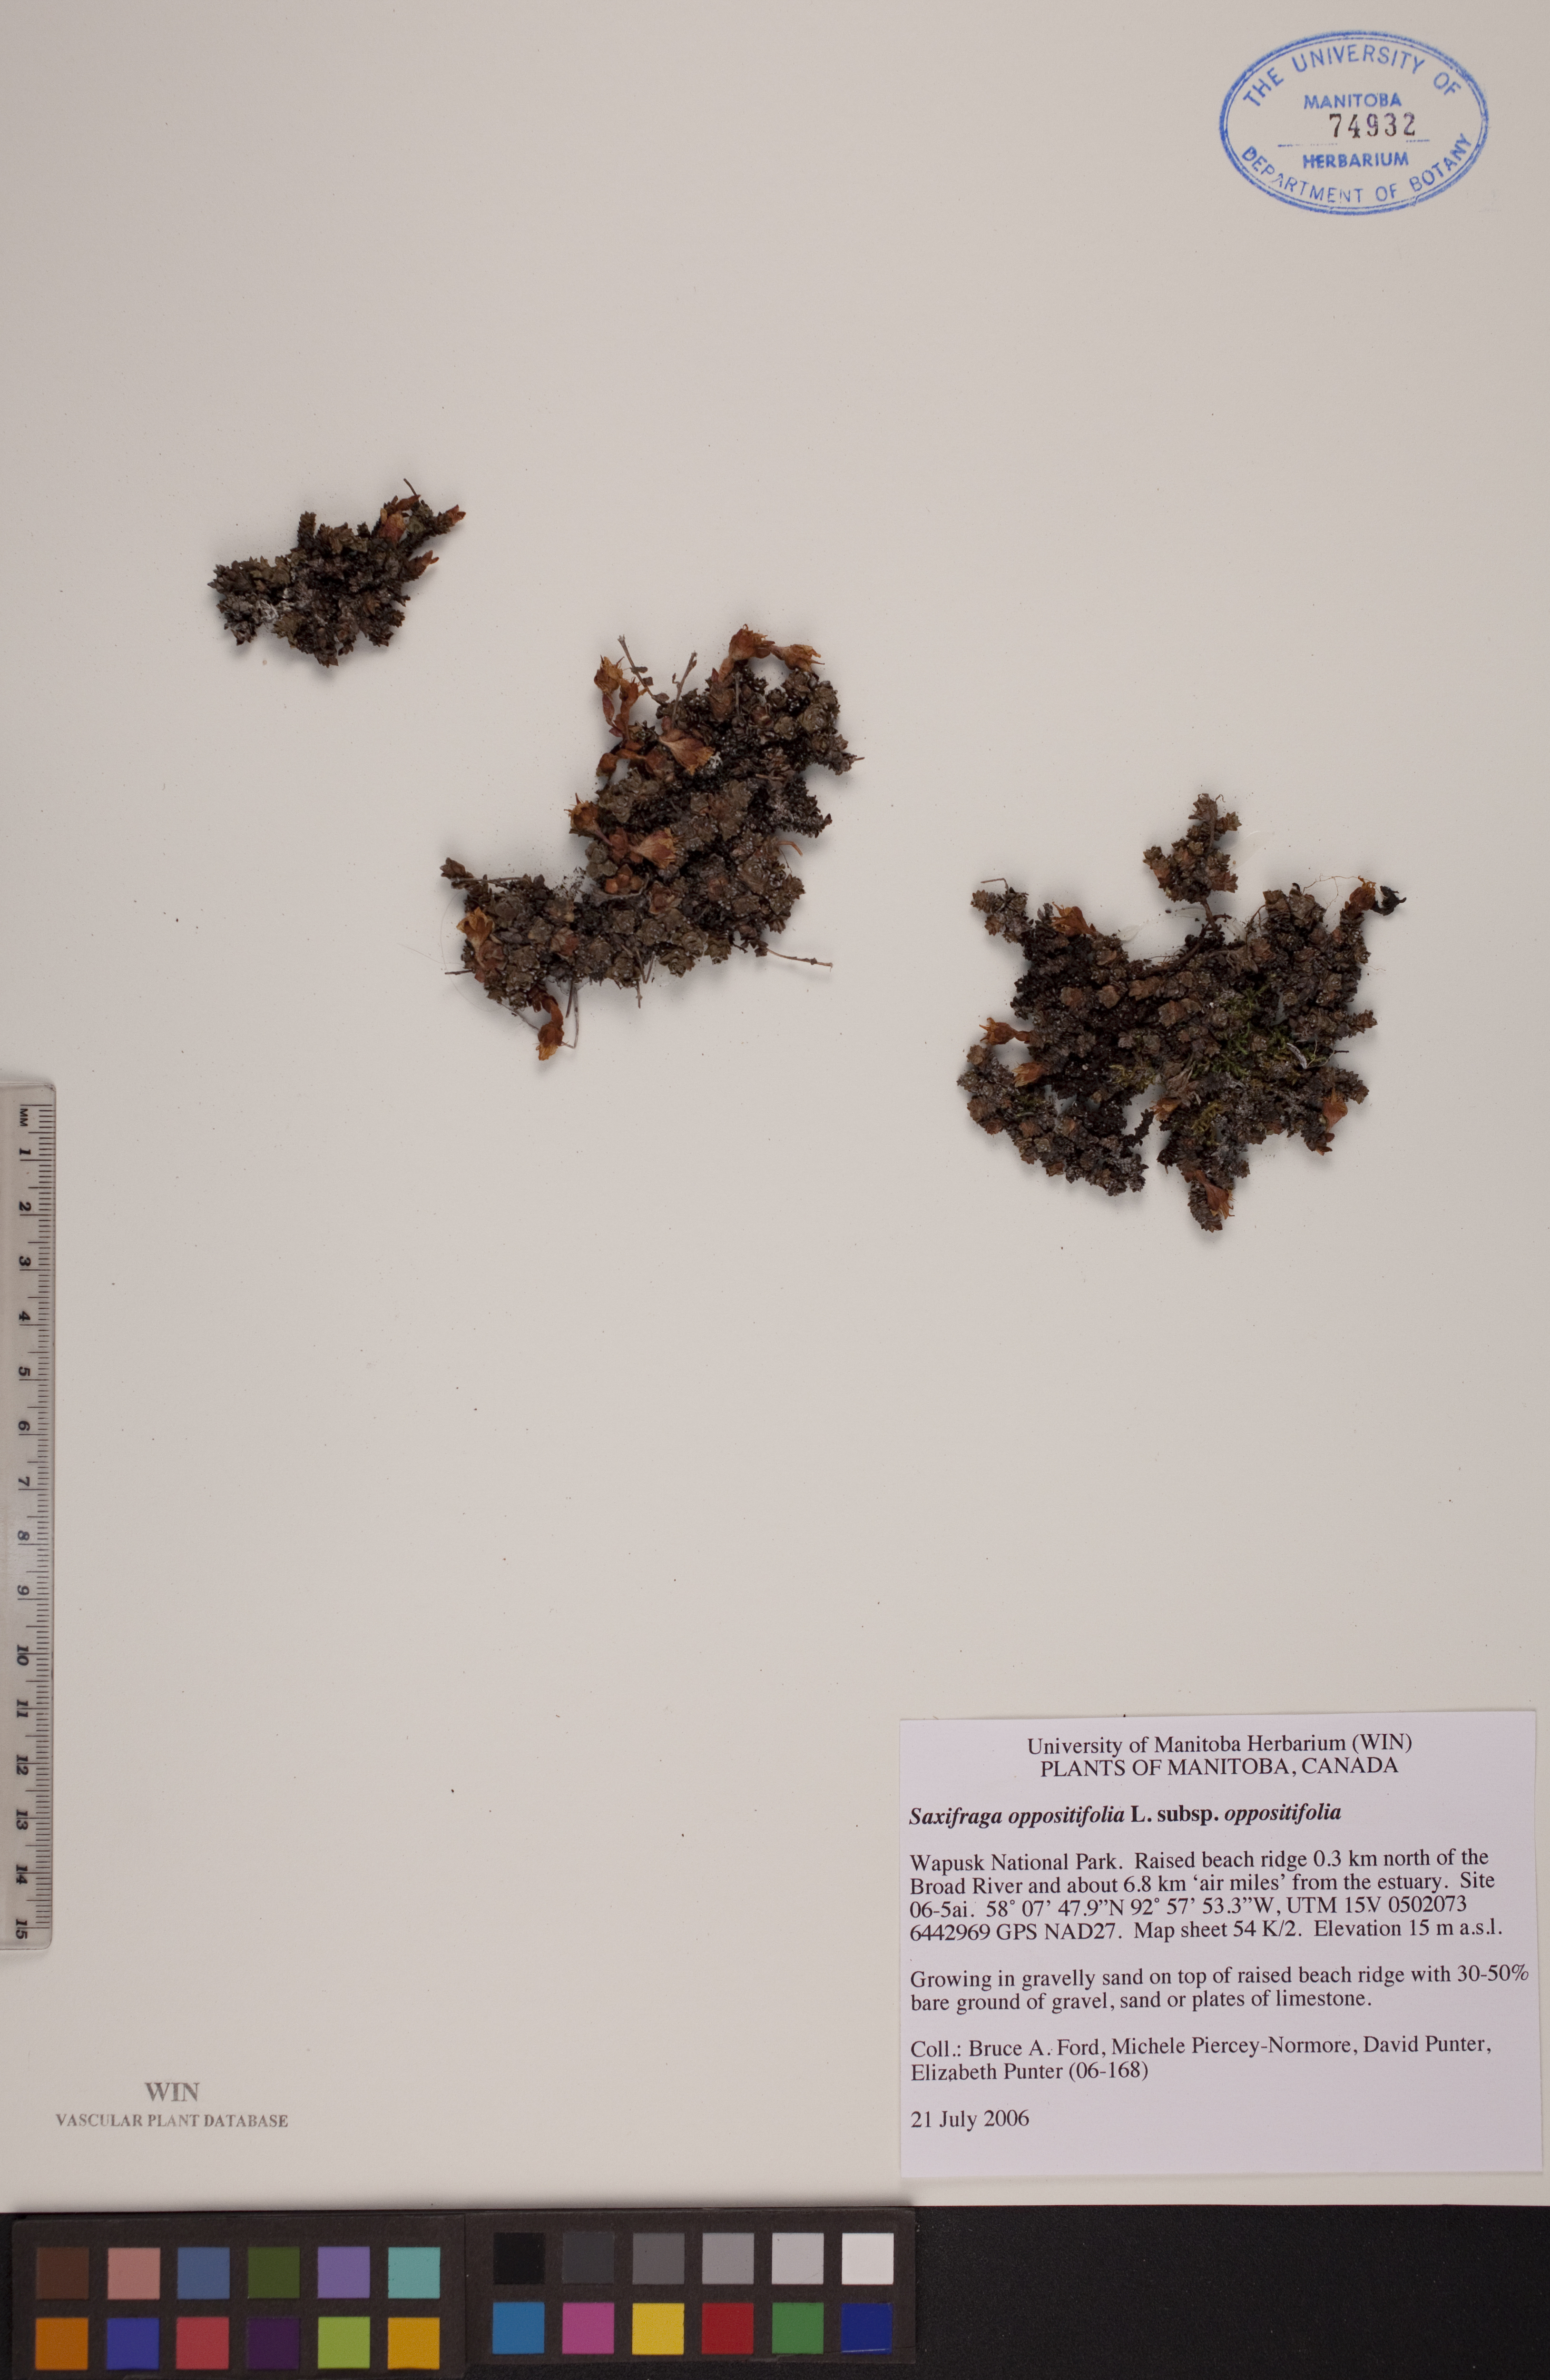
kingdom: Plantae
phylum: Tracheophyta
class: Magnoliopsida
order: Saxifragales
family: Saxifragaceae
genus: Saxifraga
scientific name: Saxifraga oppositifolia
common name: Purple saxifrage
